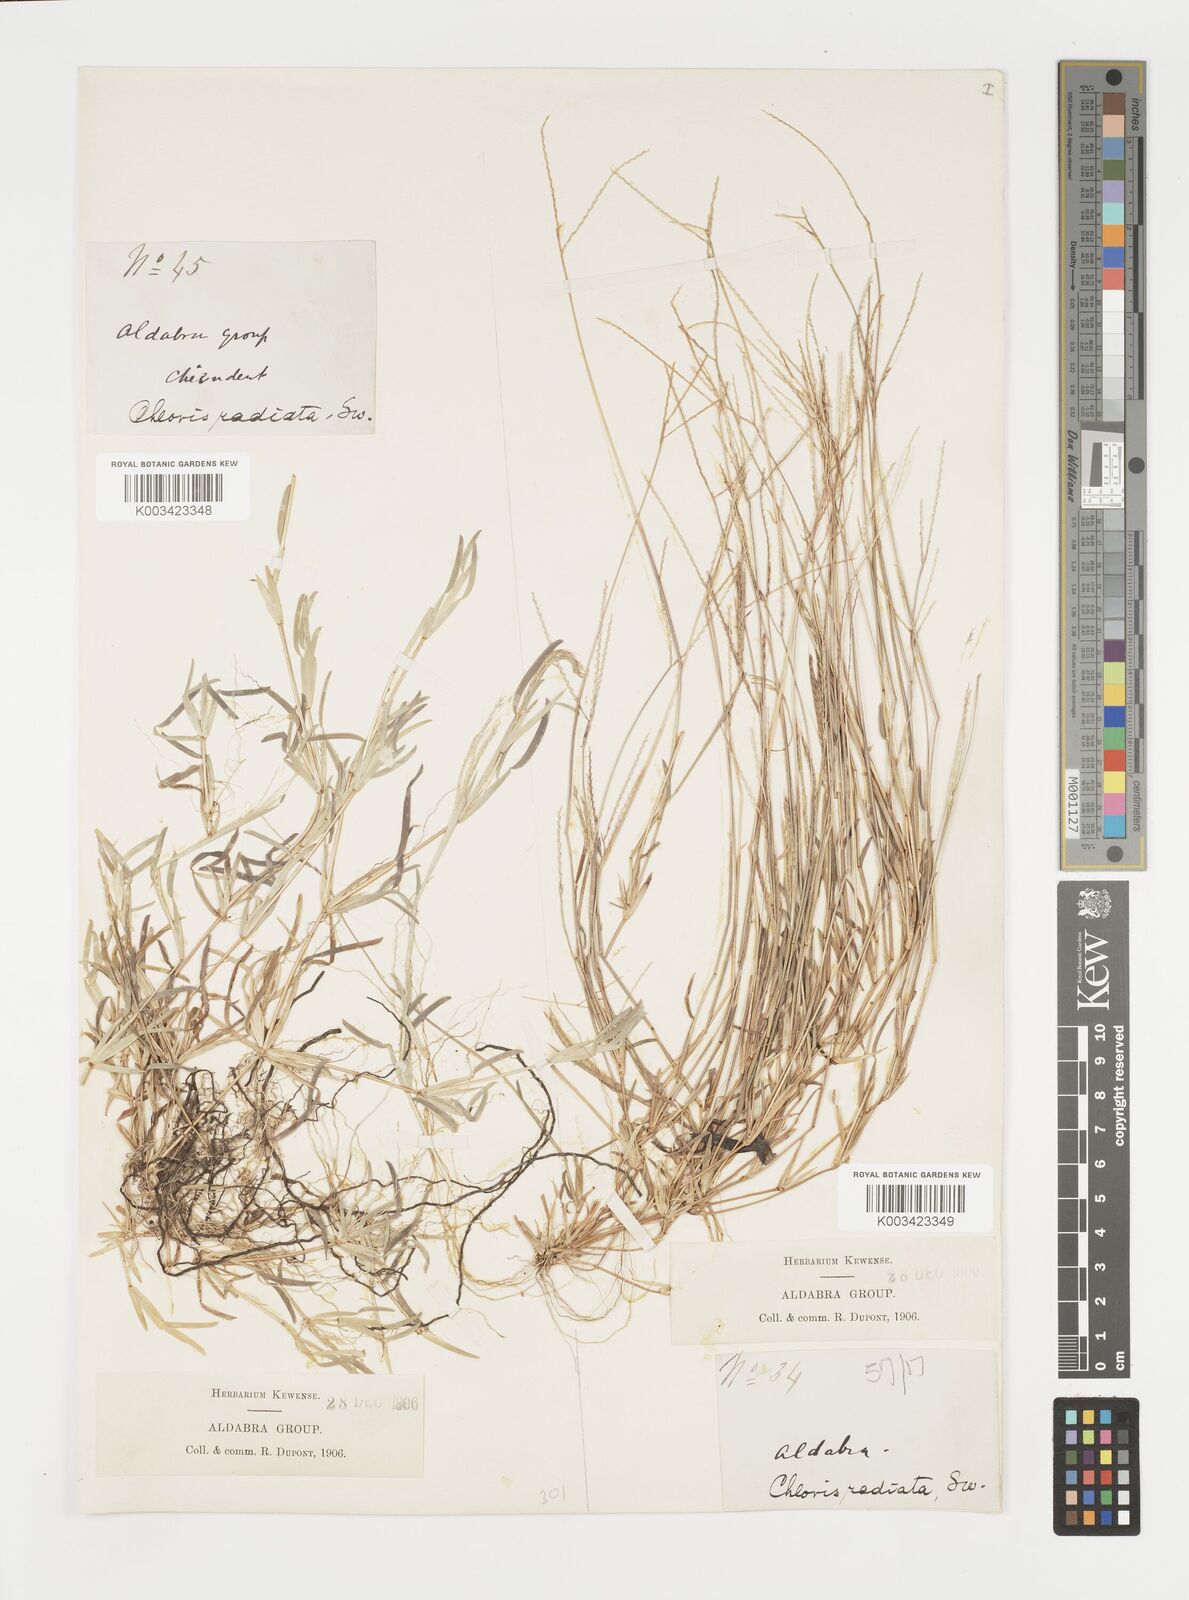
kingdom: Plantae
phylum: Tracheophyta
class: Liliopsida
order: Poales
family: Poaceae
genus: Daknopholis
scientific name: Daknopholis boivinii
